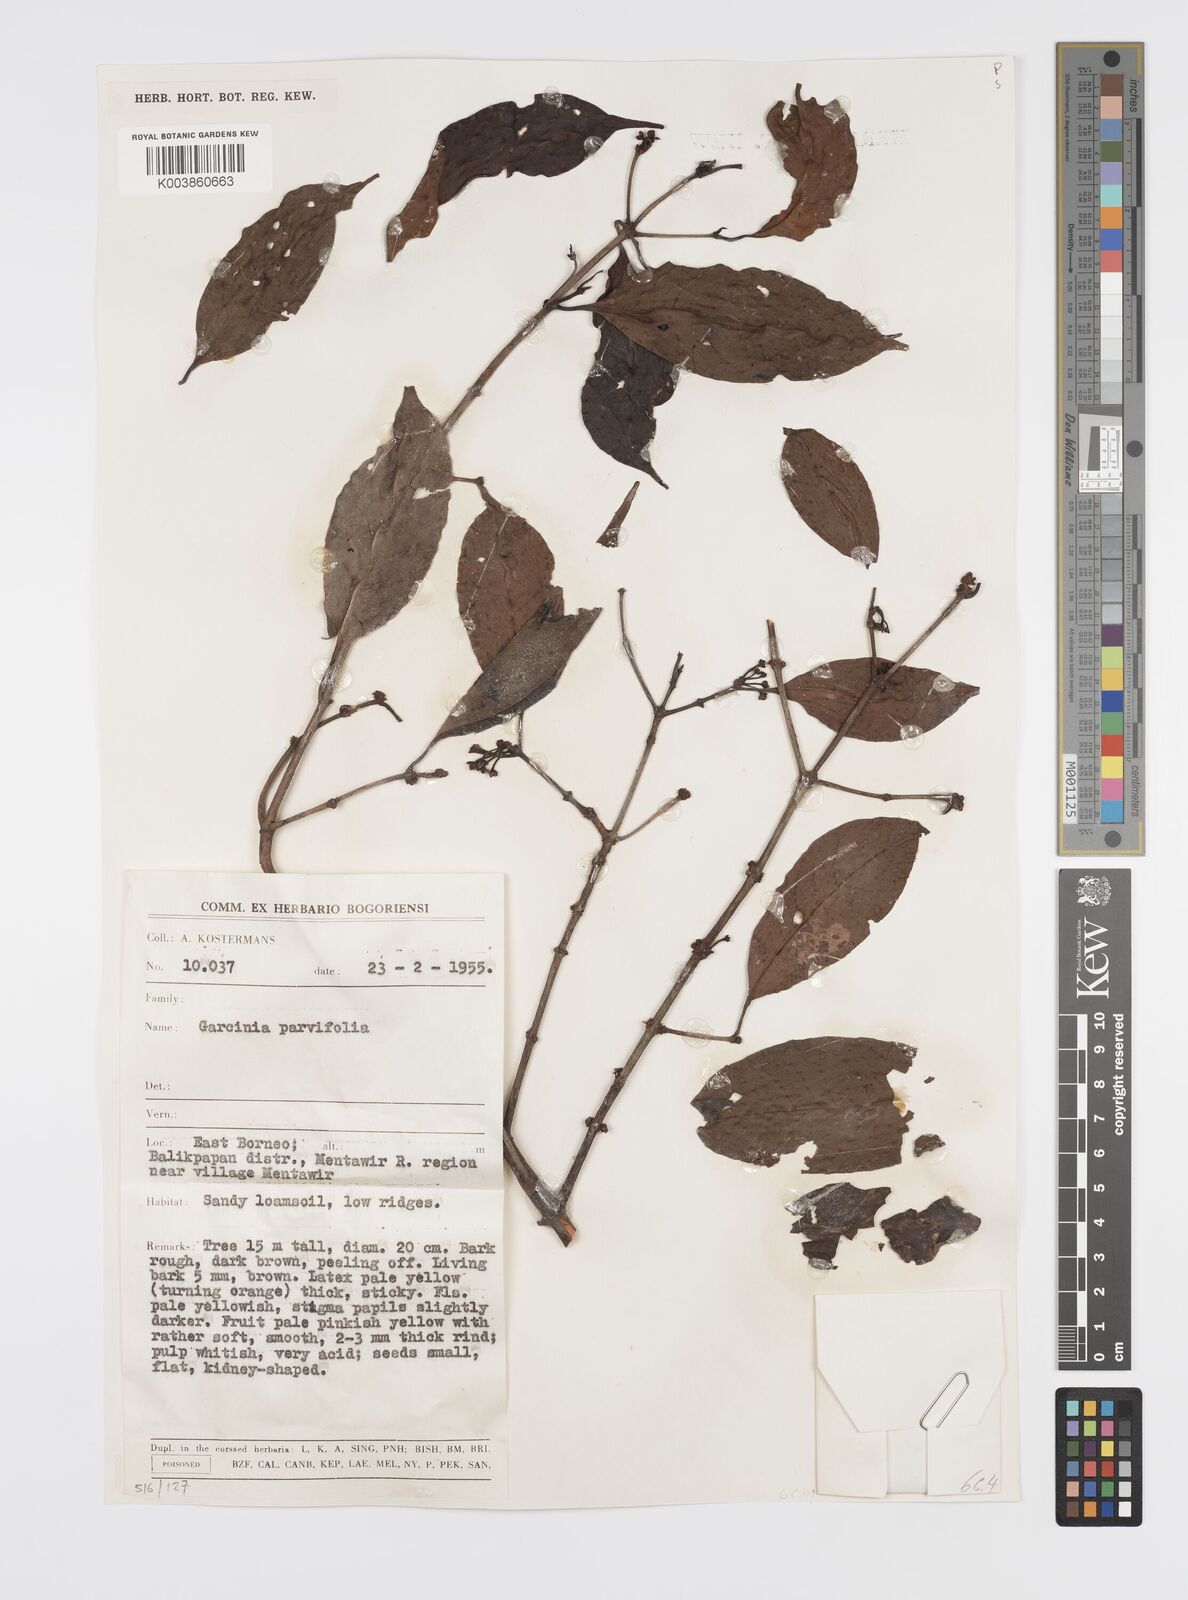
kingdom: Plantae
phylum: Tracheophyta
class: Magnoliopsida
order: Malpighiales
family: Clusiaceae
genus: Garcinia
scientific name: Garcinia parvifolia
